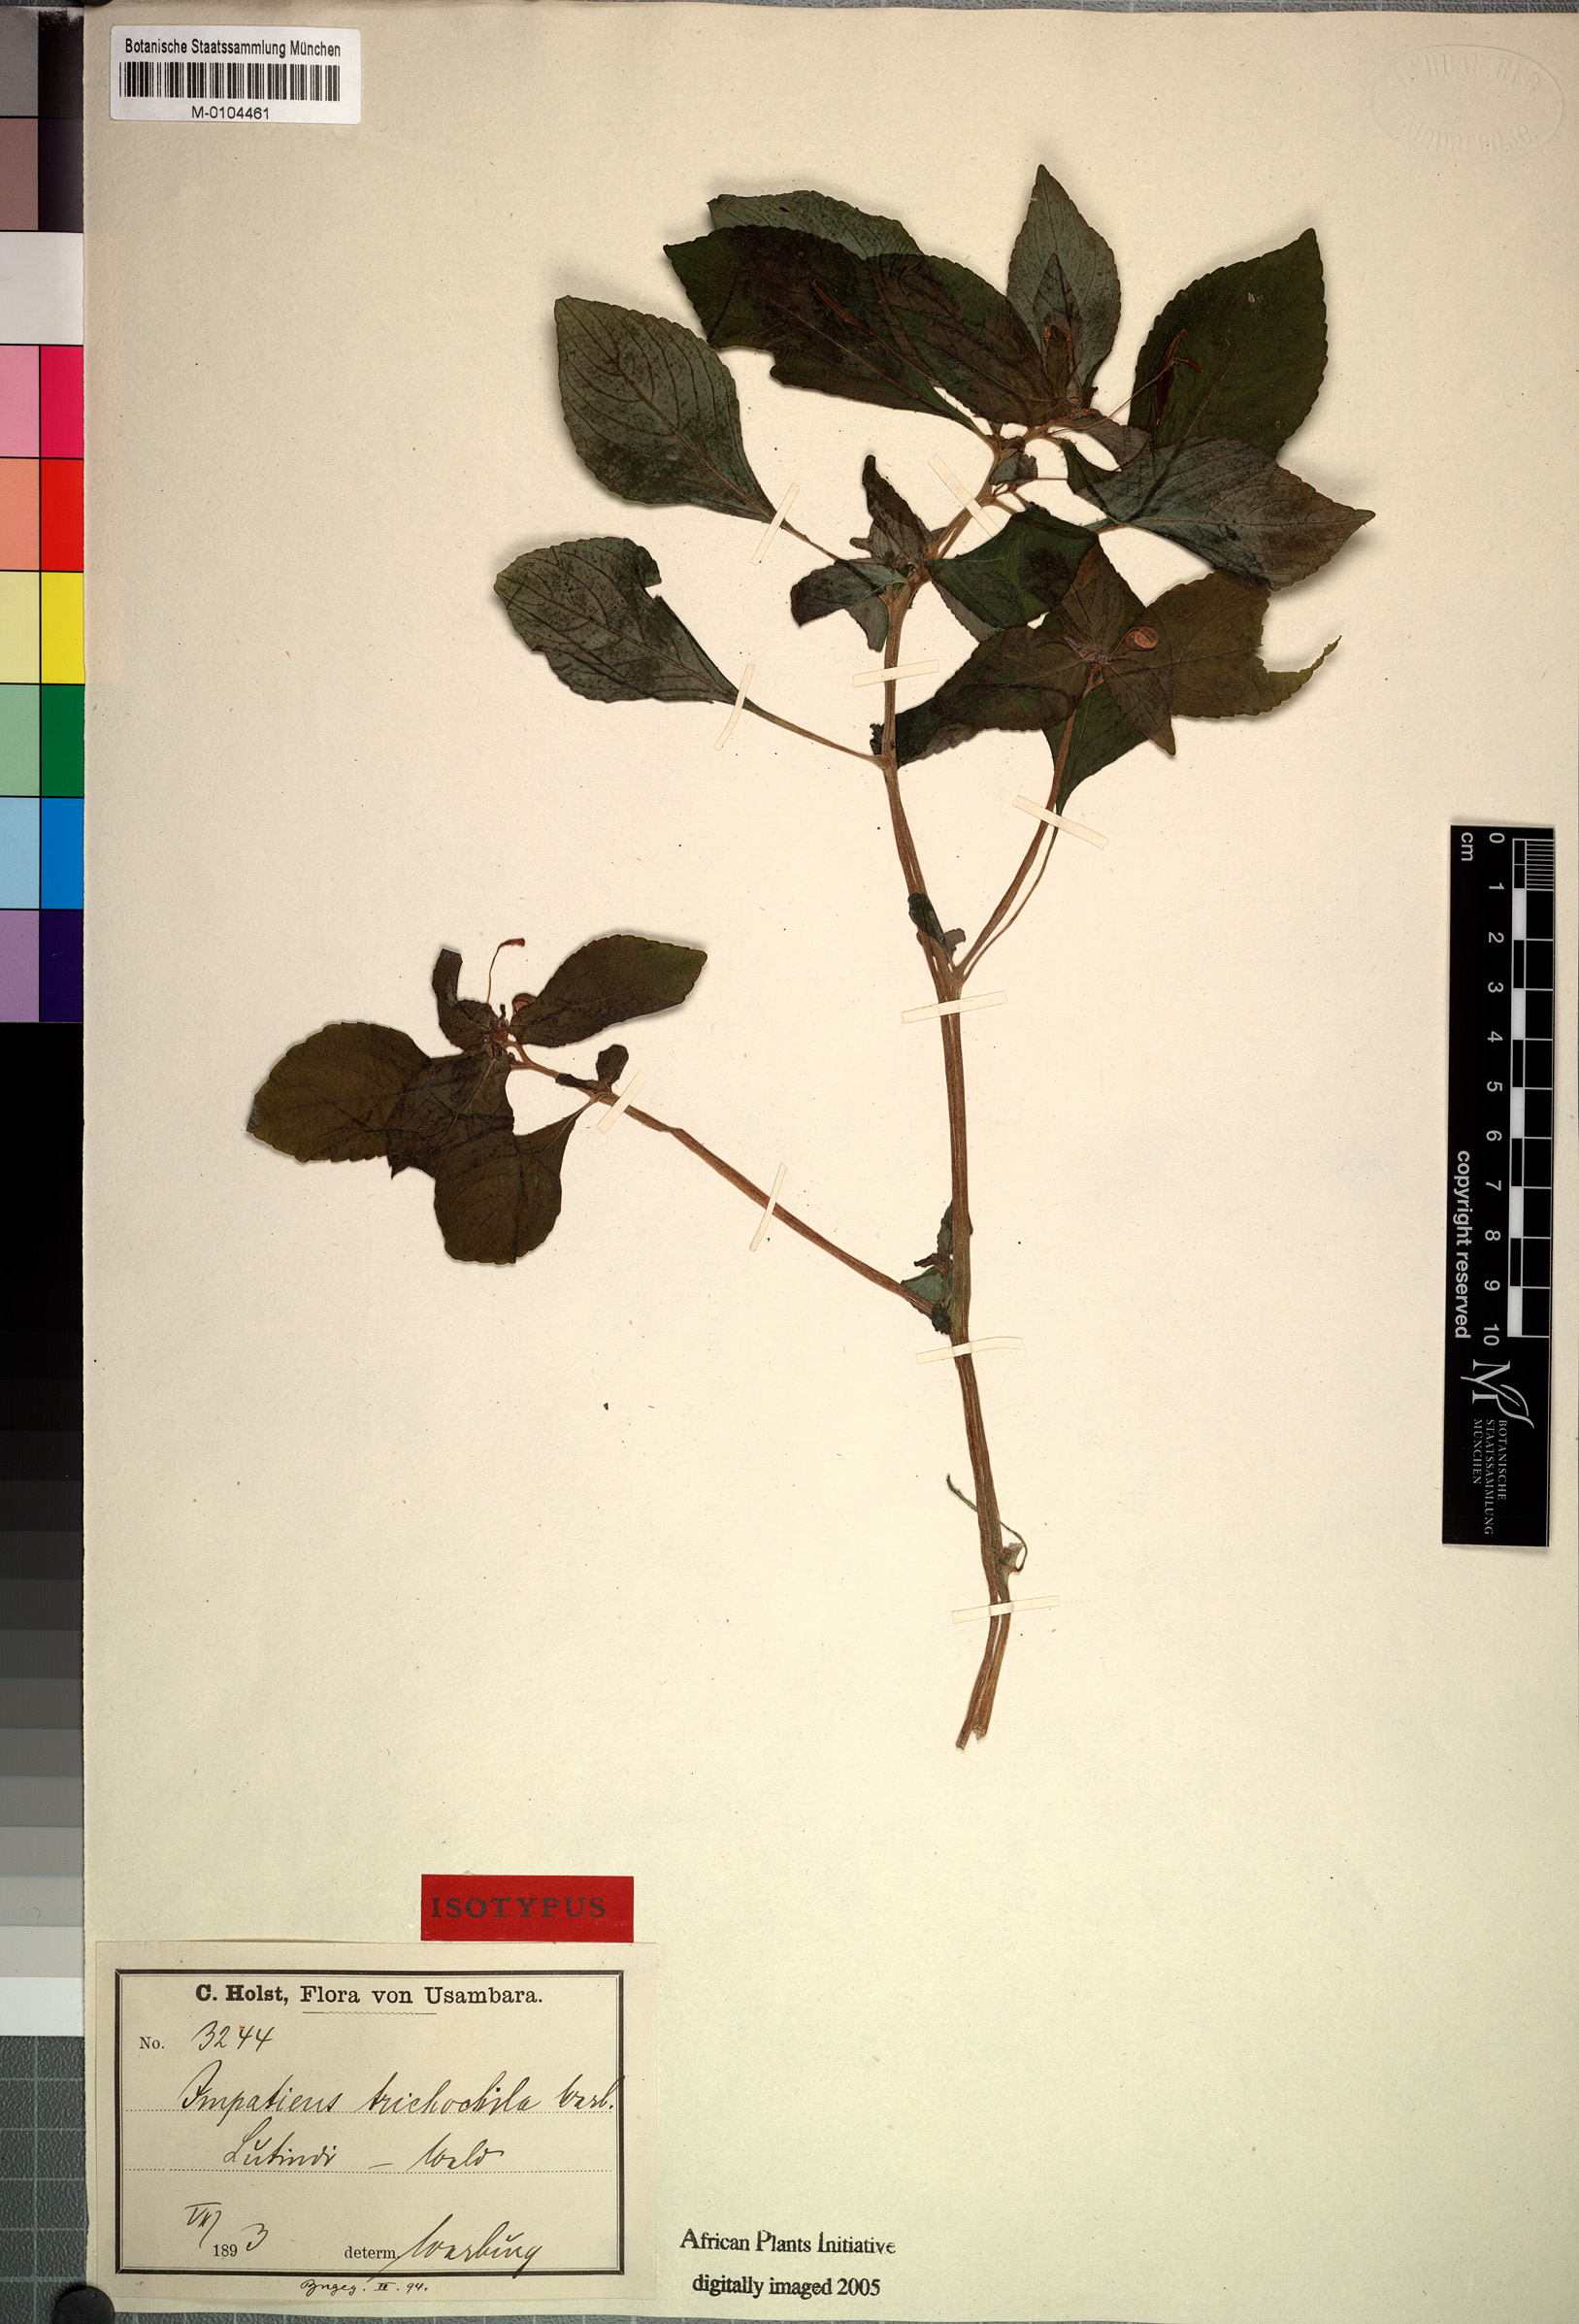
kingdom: Plantae
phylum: Tracheophyta
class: Magnoliopsida
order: Ericales
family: Balsaminaceae
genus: Impatiens
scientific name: Impatiens nana
